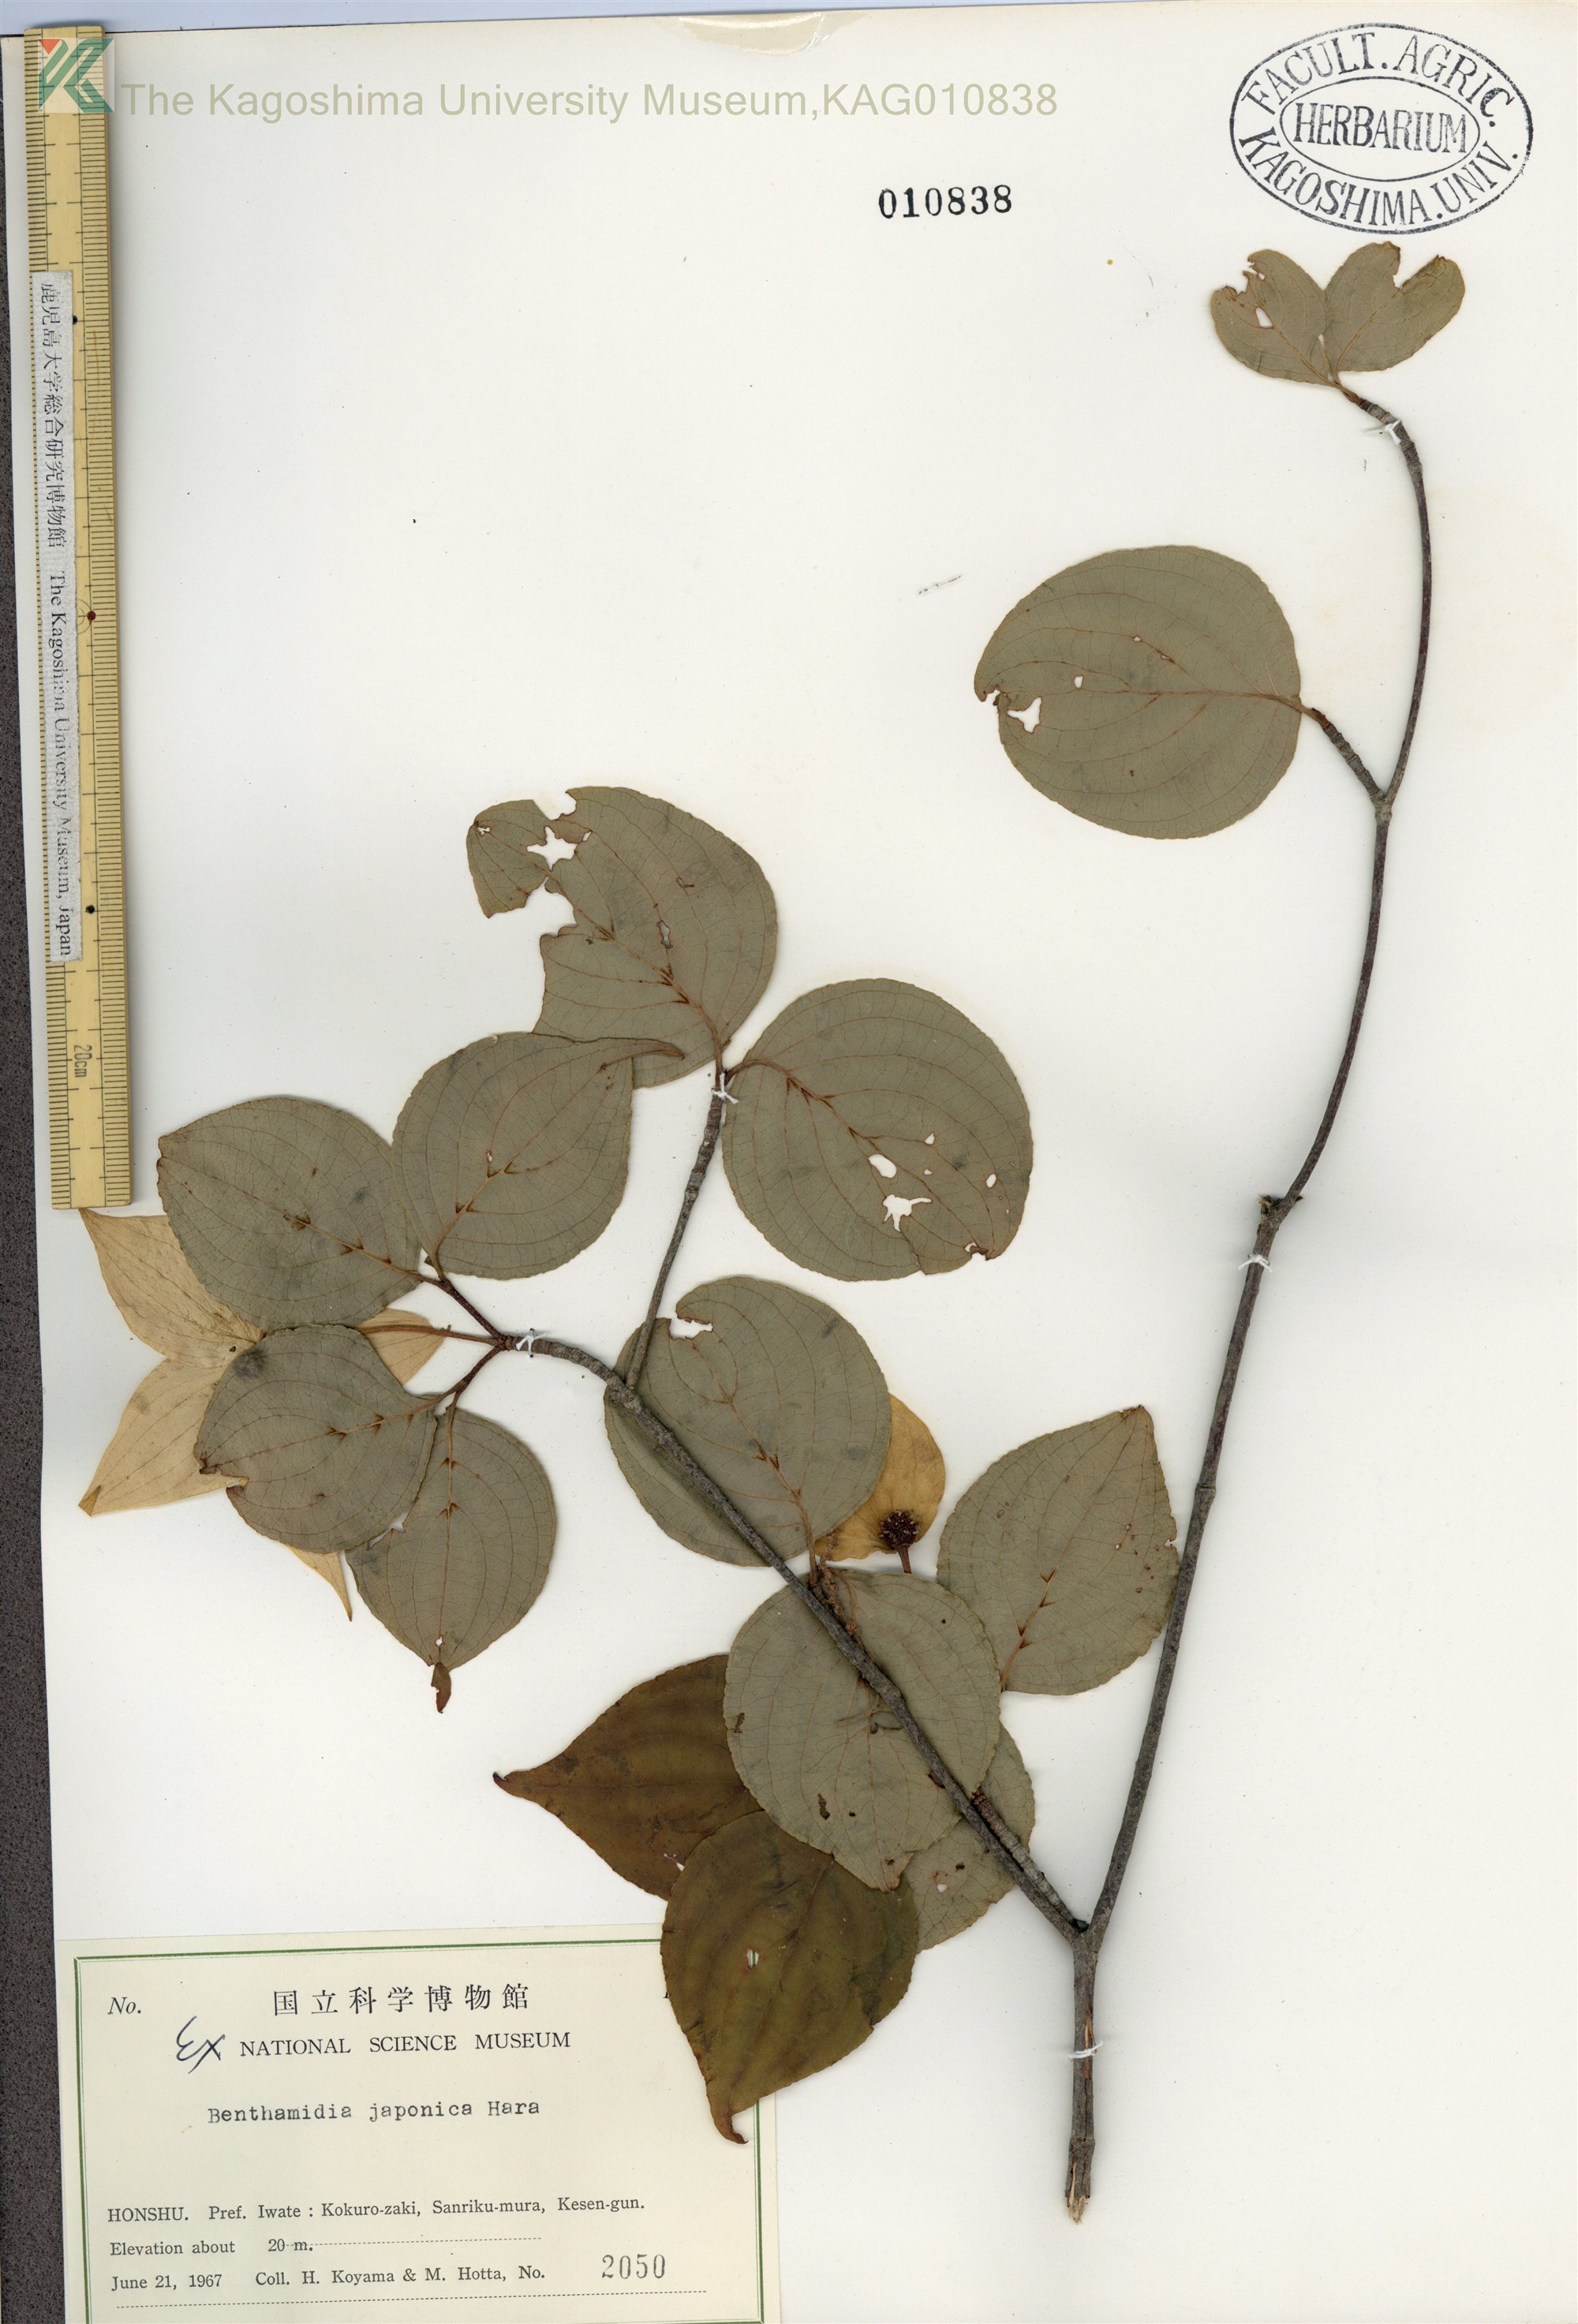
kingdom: Plantae
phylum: Tracheophyta
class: Magnoliopsida
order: Cornales
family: Cornaceae
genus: Cornus
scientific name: Cornus kousa
